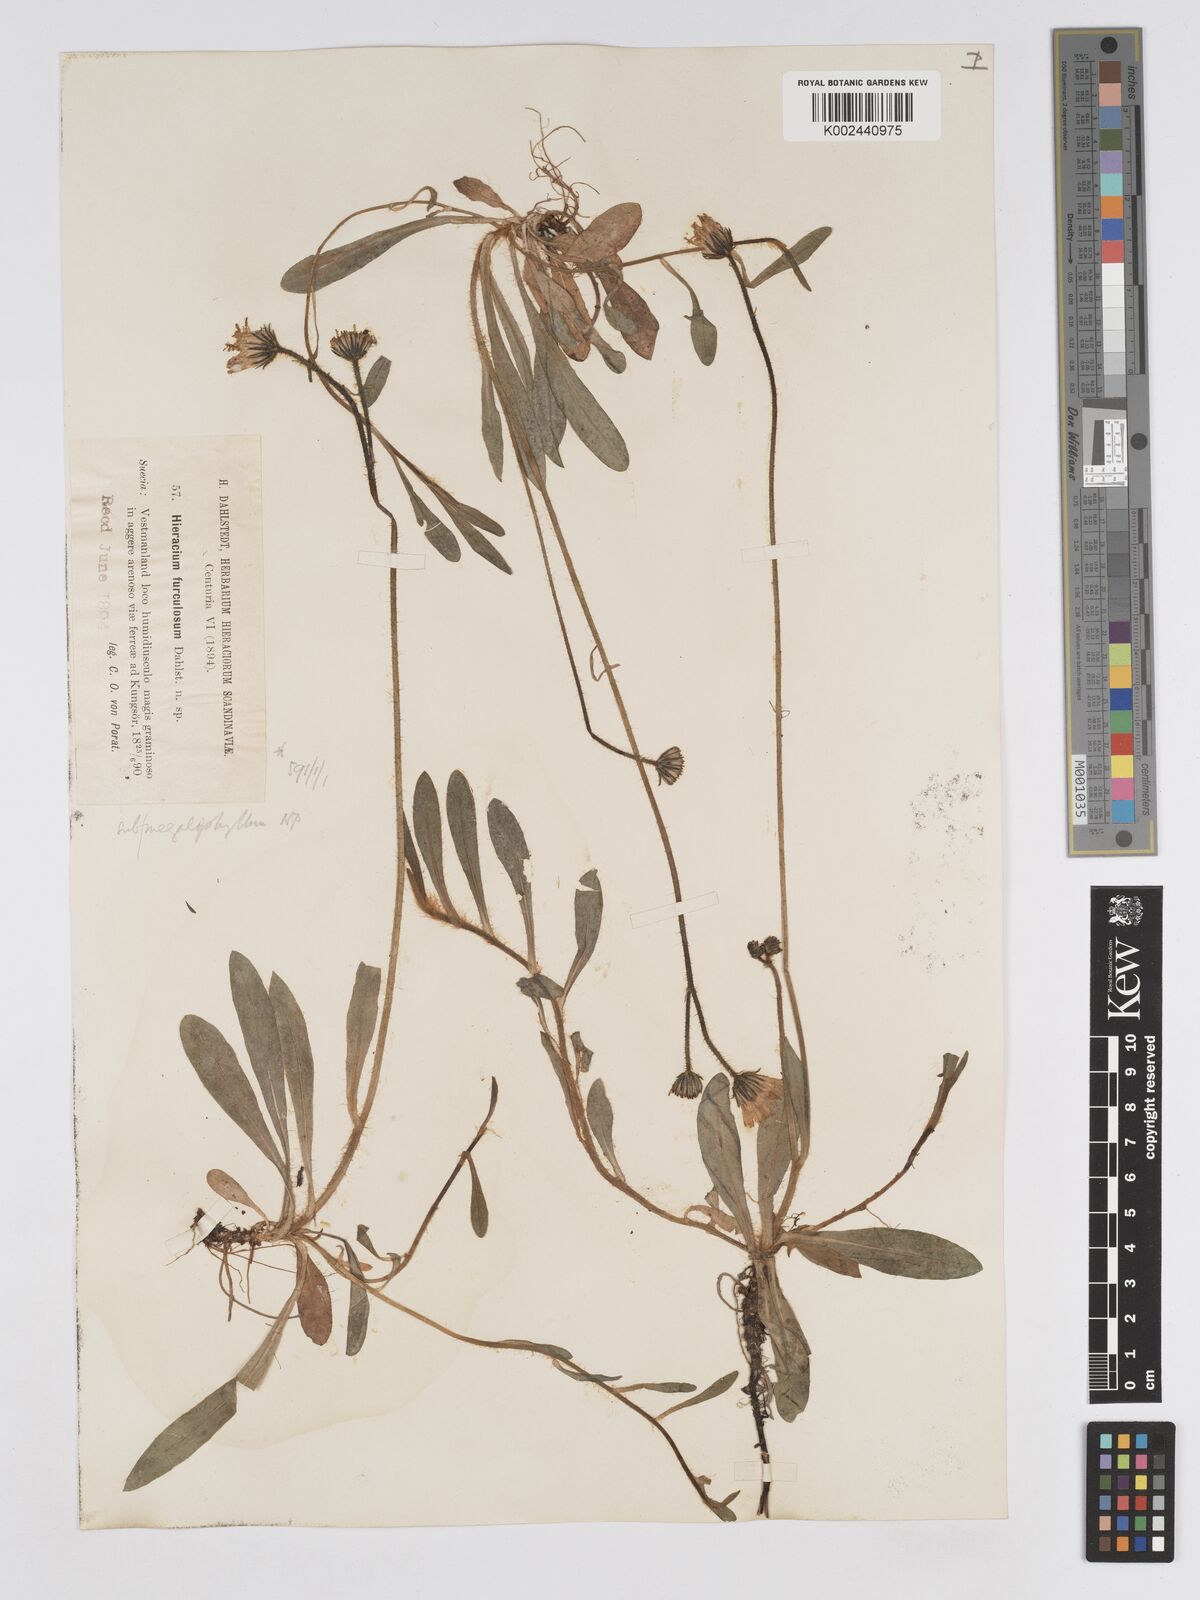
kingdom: Plantae
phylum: Tracheophyta
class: Magnoliopsida
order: Asterales
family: Asteraceae
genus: Pilosella
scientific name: Pilosella schultesii
